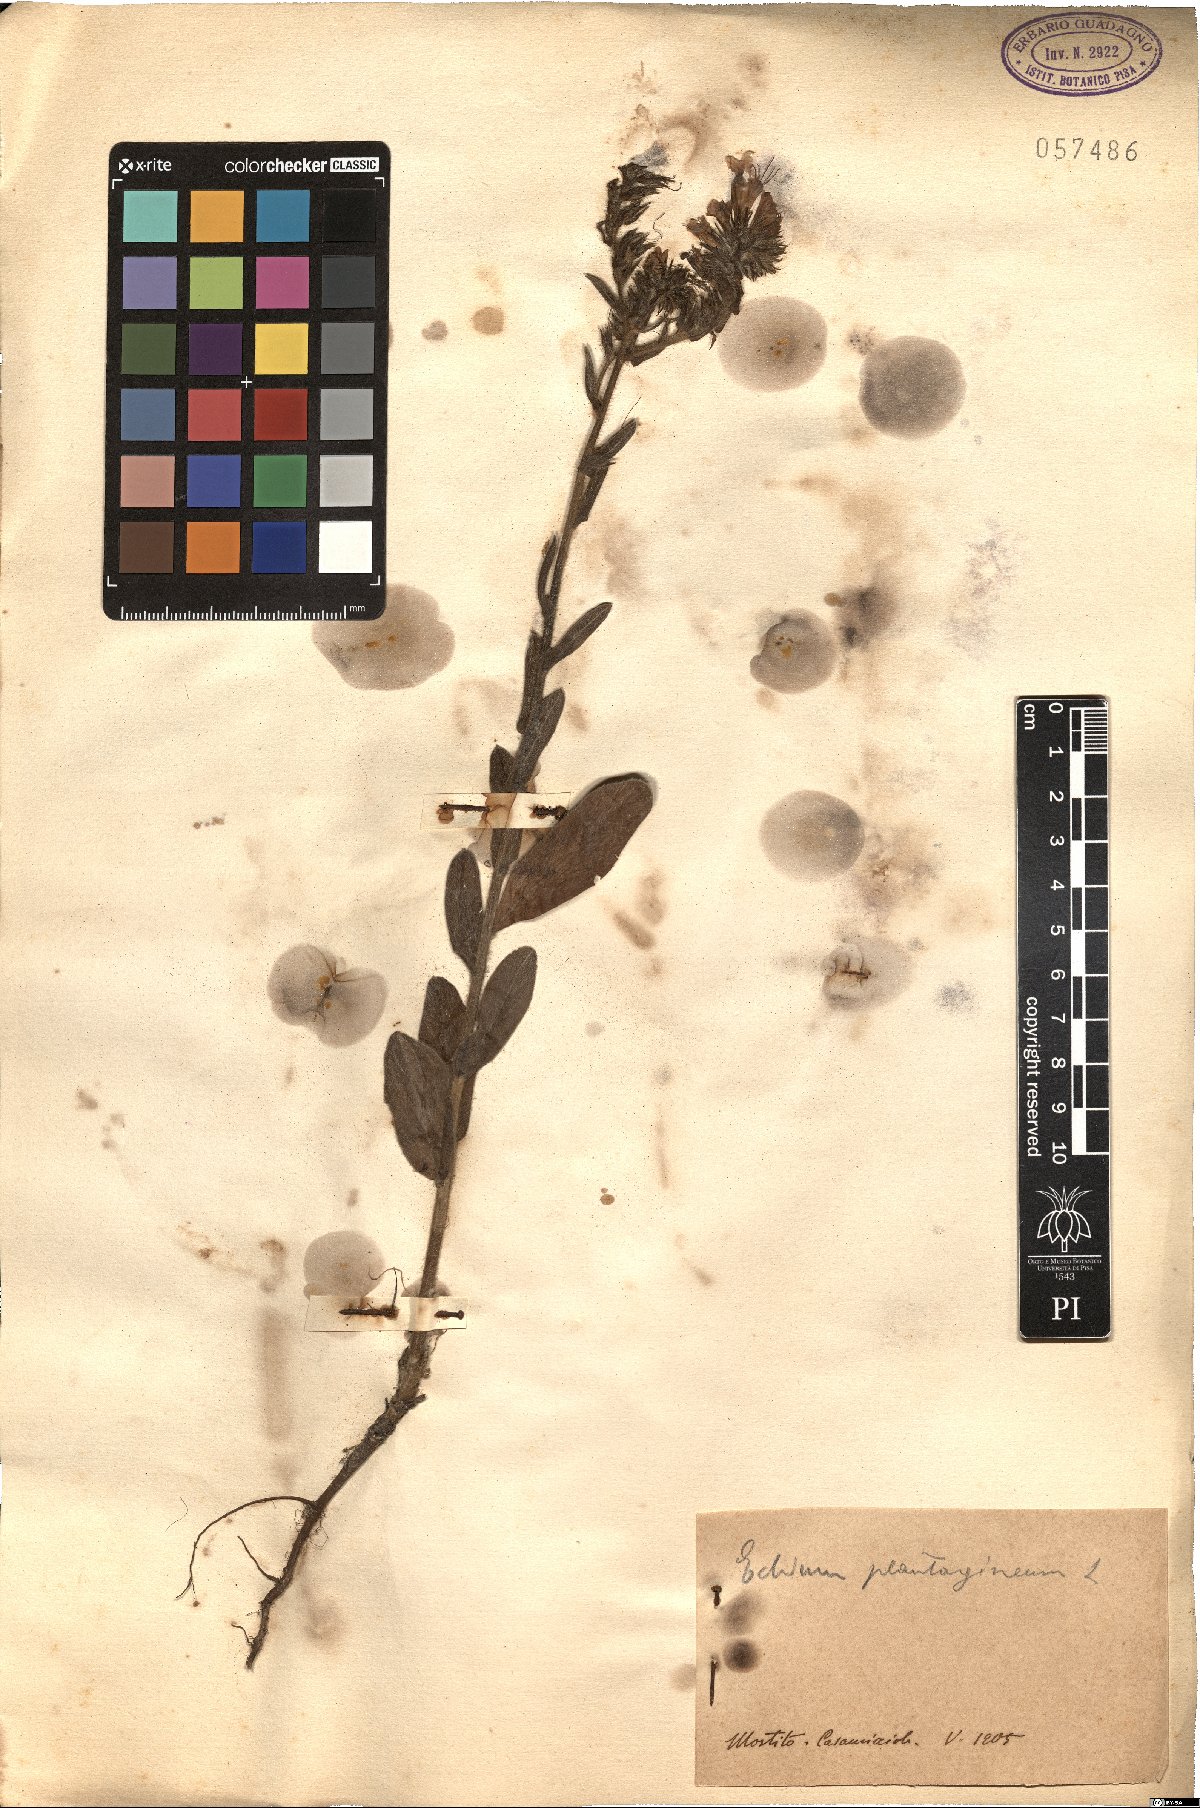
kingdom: Plantae
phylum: Tracheophyta
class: Magnoliopsida
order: Boraginales
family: Boraginaceae
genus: Echium
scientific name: Echium plantagineum
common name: Purple viper's-bugloss
